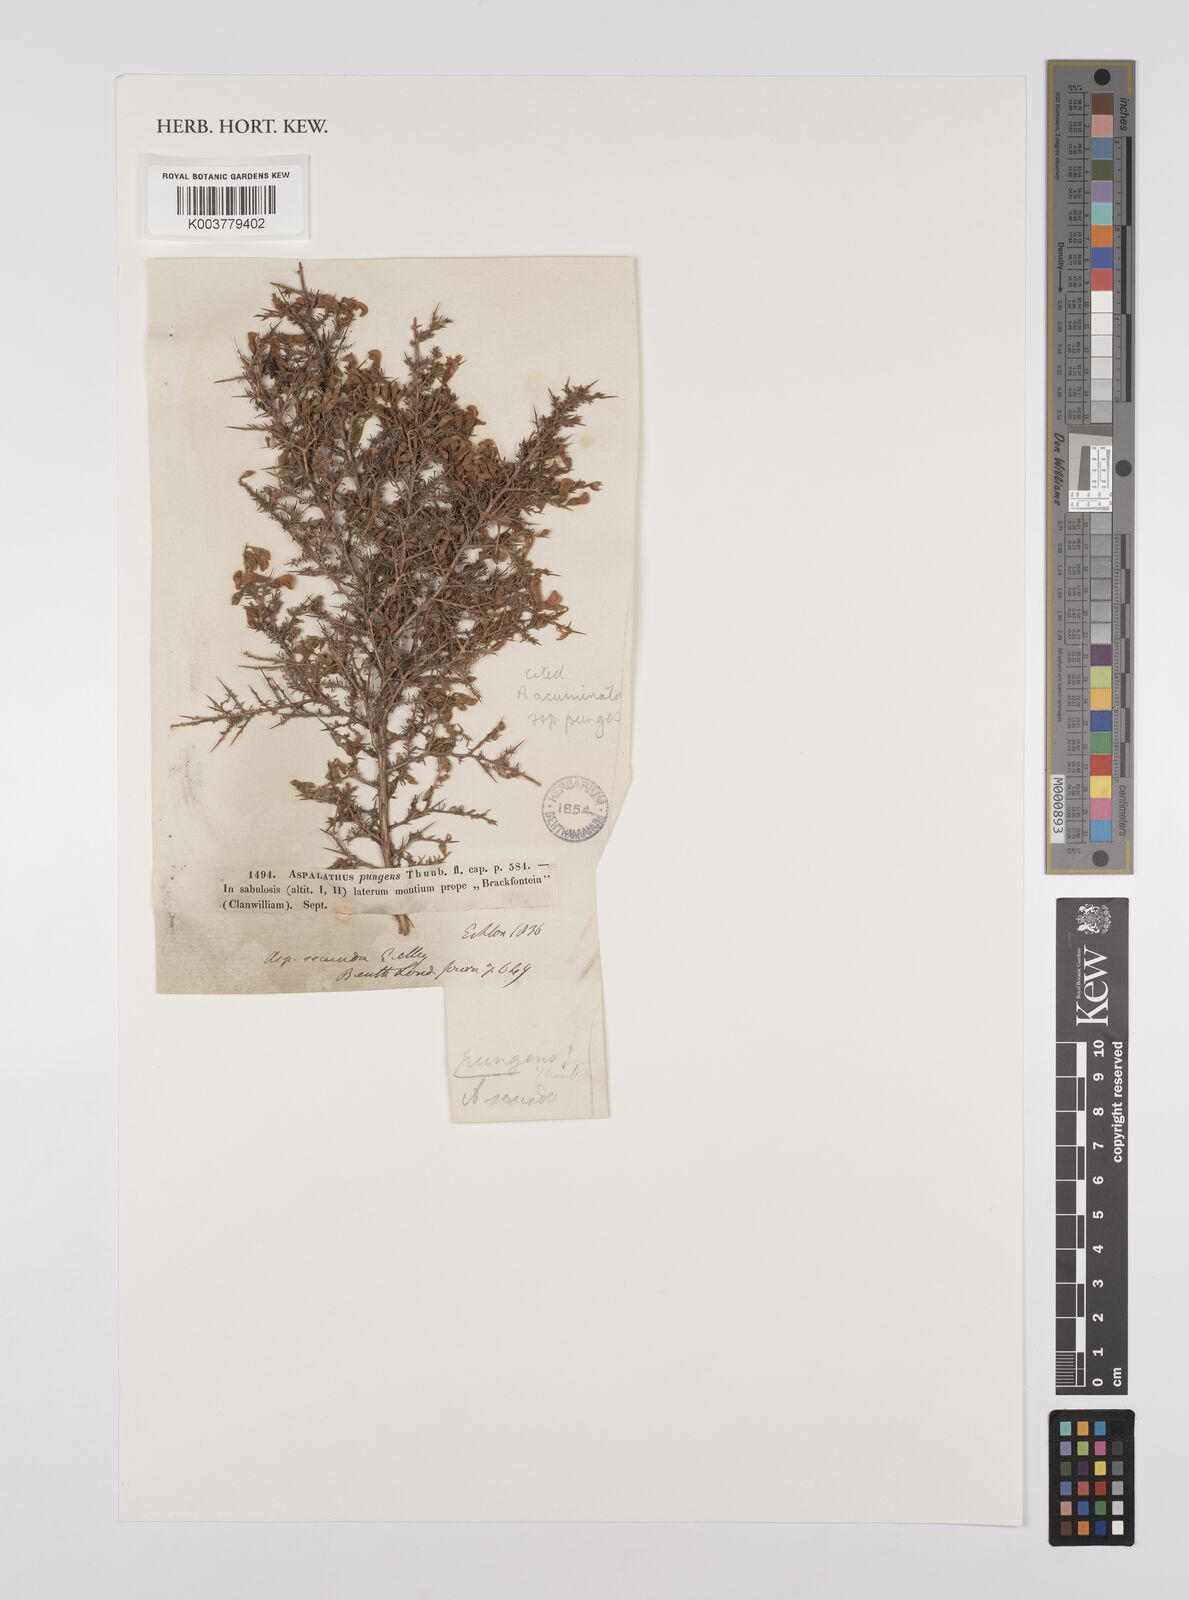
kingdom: Plantae
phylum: Tracheophyta
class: Magnoliopsida
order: Fabales
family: Fabaceae
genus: Aspalathus
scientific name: Aspalathus ambigua
